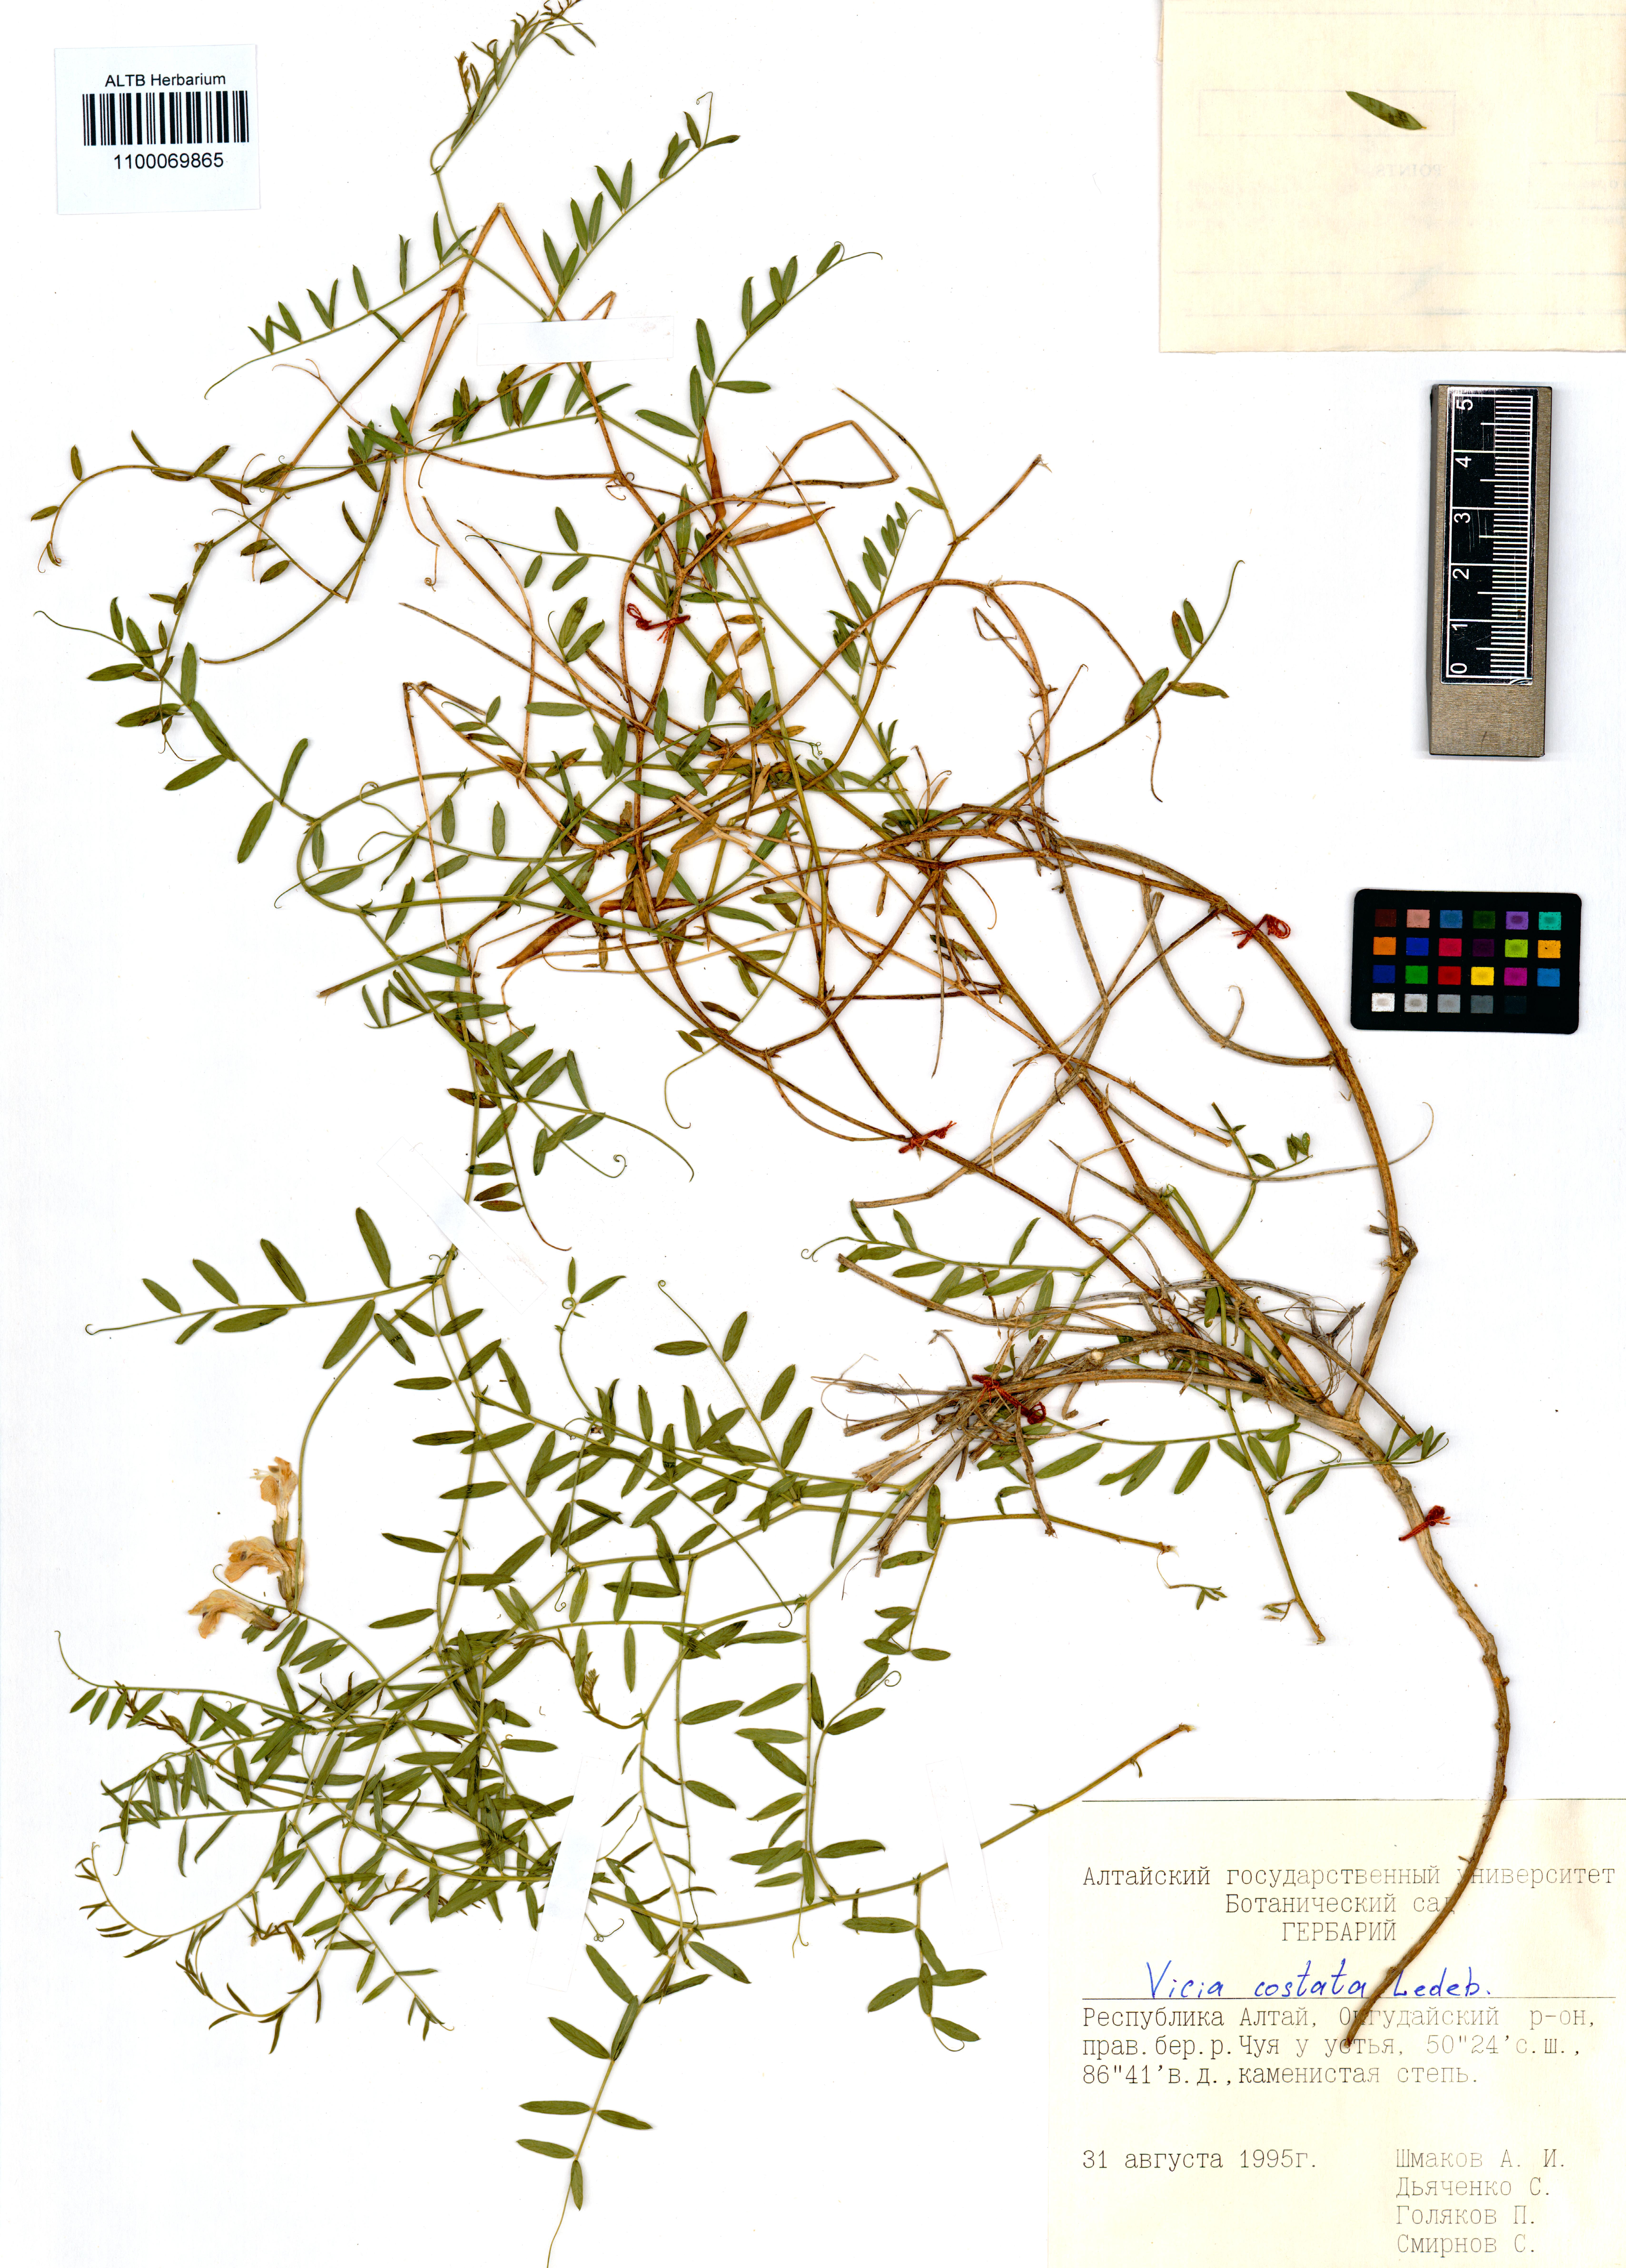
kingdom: Plantae
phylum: Tracheophyta
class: Magnoliopsida
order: Fabales
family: Fabaceae
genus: Vicia
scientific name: Vicia costata
